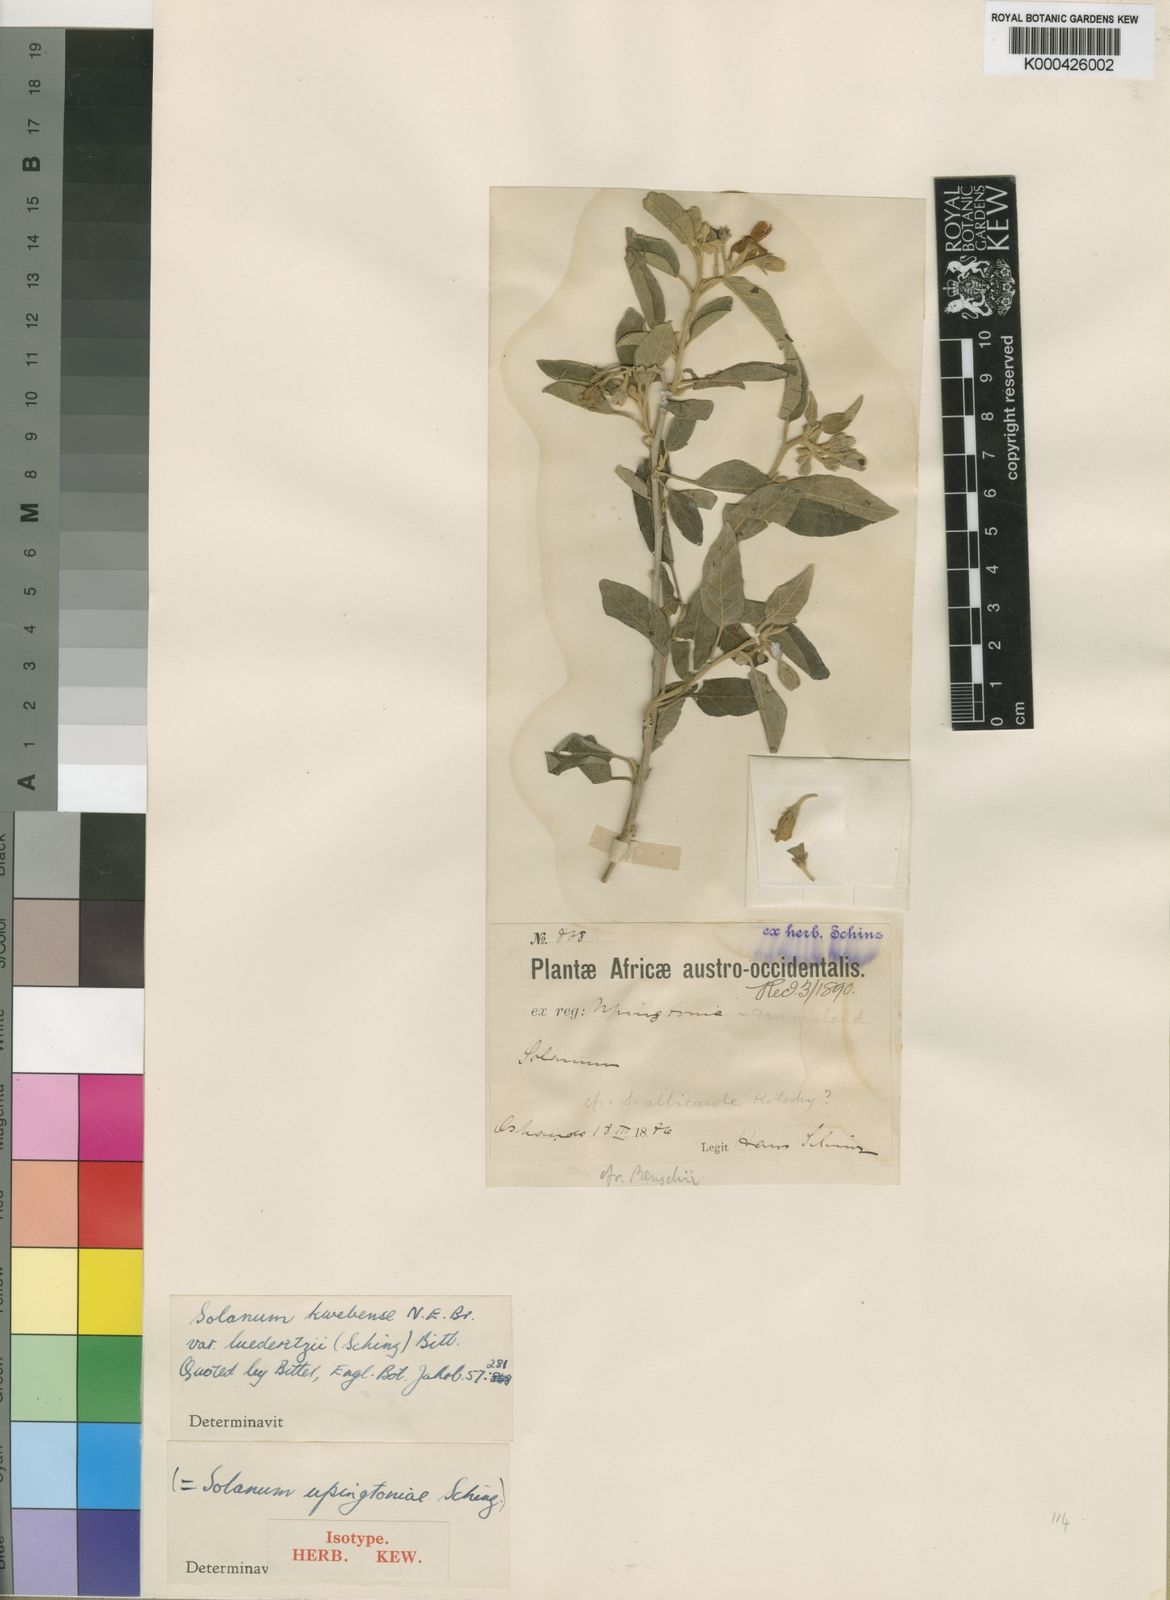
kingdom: Plantae
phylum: Tracheophyta
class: Magnoliopsida
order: Solanales
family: Solanaceae
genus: Solanum
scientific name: Solanum tettense
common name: Mozambique bitter apple
